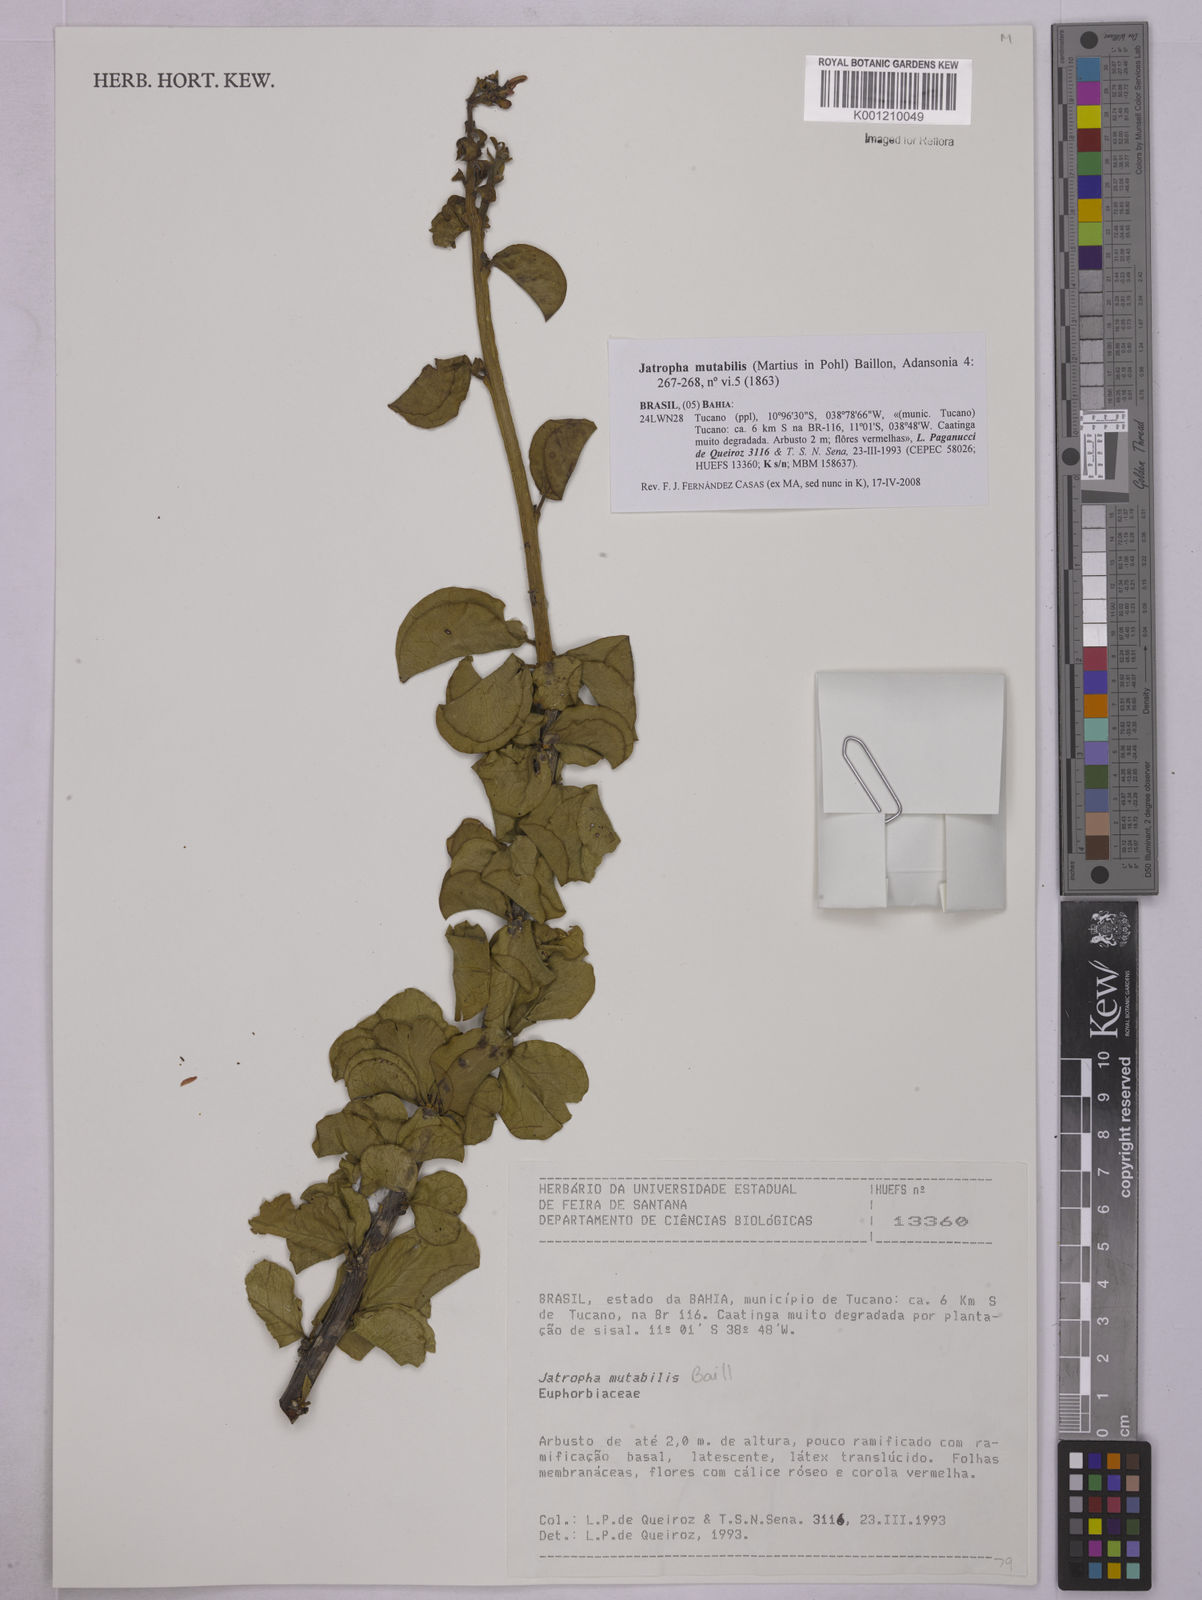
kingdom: Plantae
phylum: Tracheophyta
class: Magnoliopsida
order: Malpighiales
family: Euphorbiaceae
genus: Jatropha
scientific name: Jatropha mutabilis
